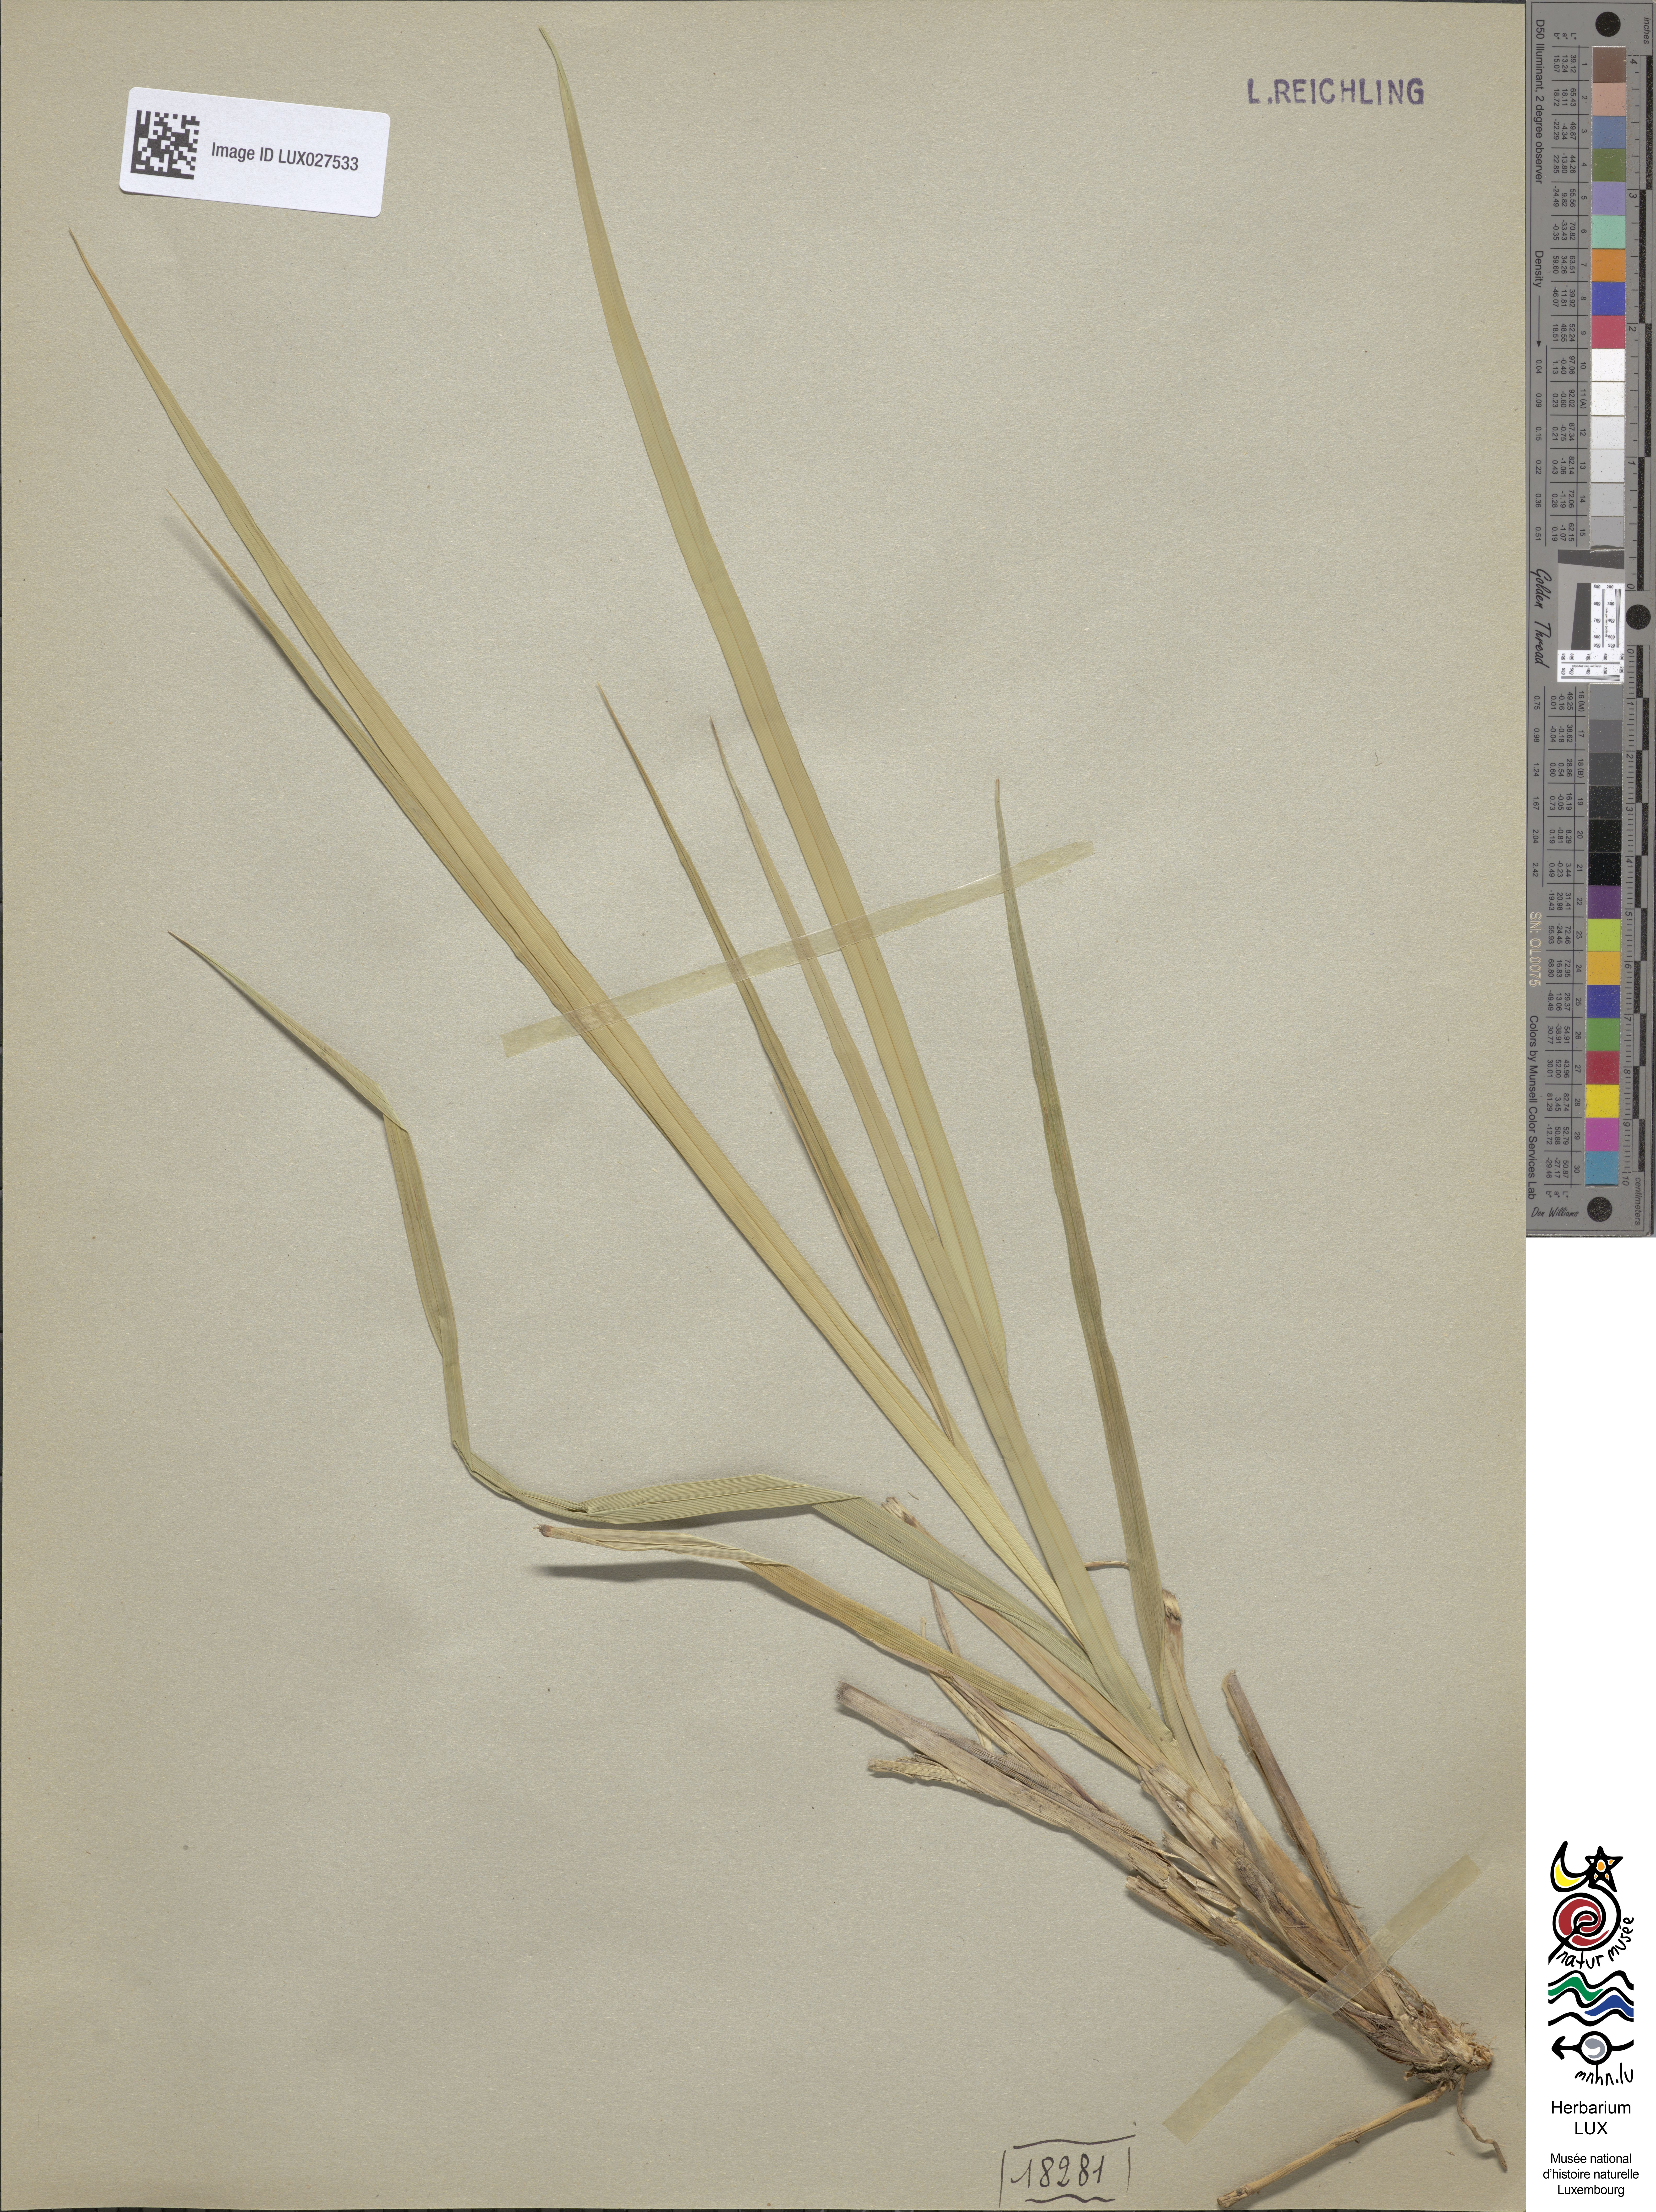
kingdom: Plantae
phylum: Tracheophyta
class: Liliopsida
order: Poales
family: Cyperaceae
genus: Carex
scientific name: Carex riparia
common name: Greater pond-sedge
